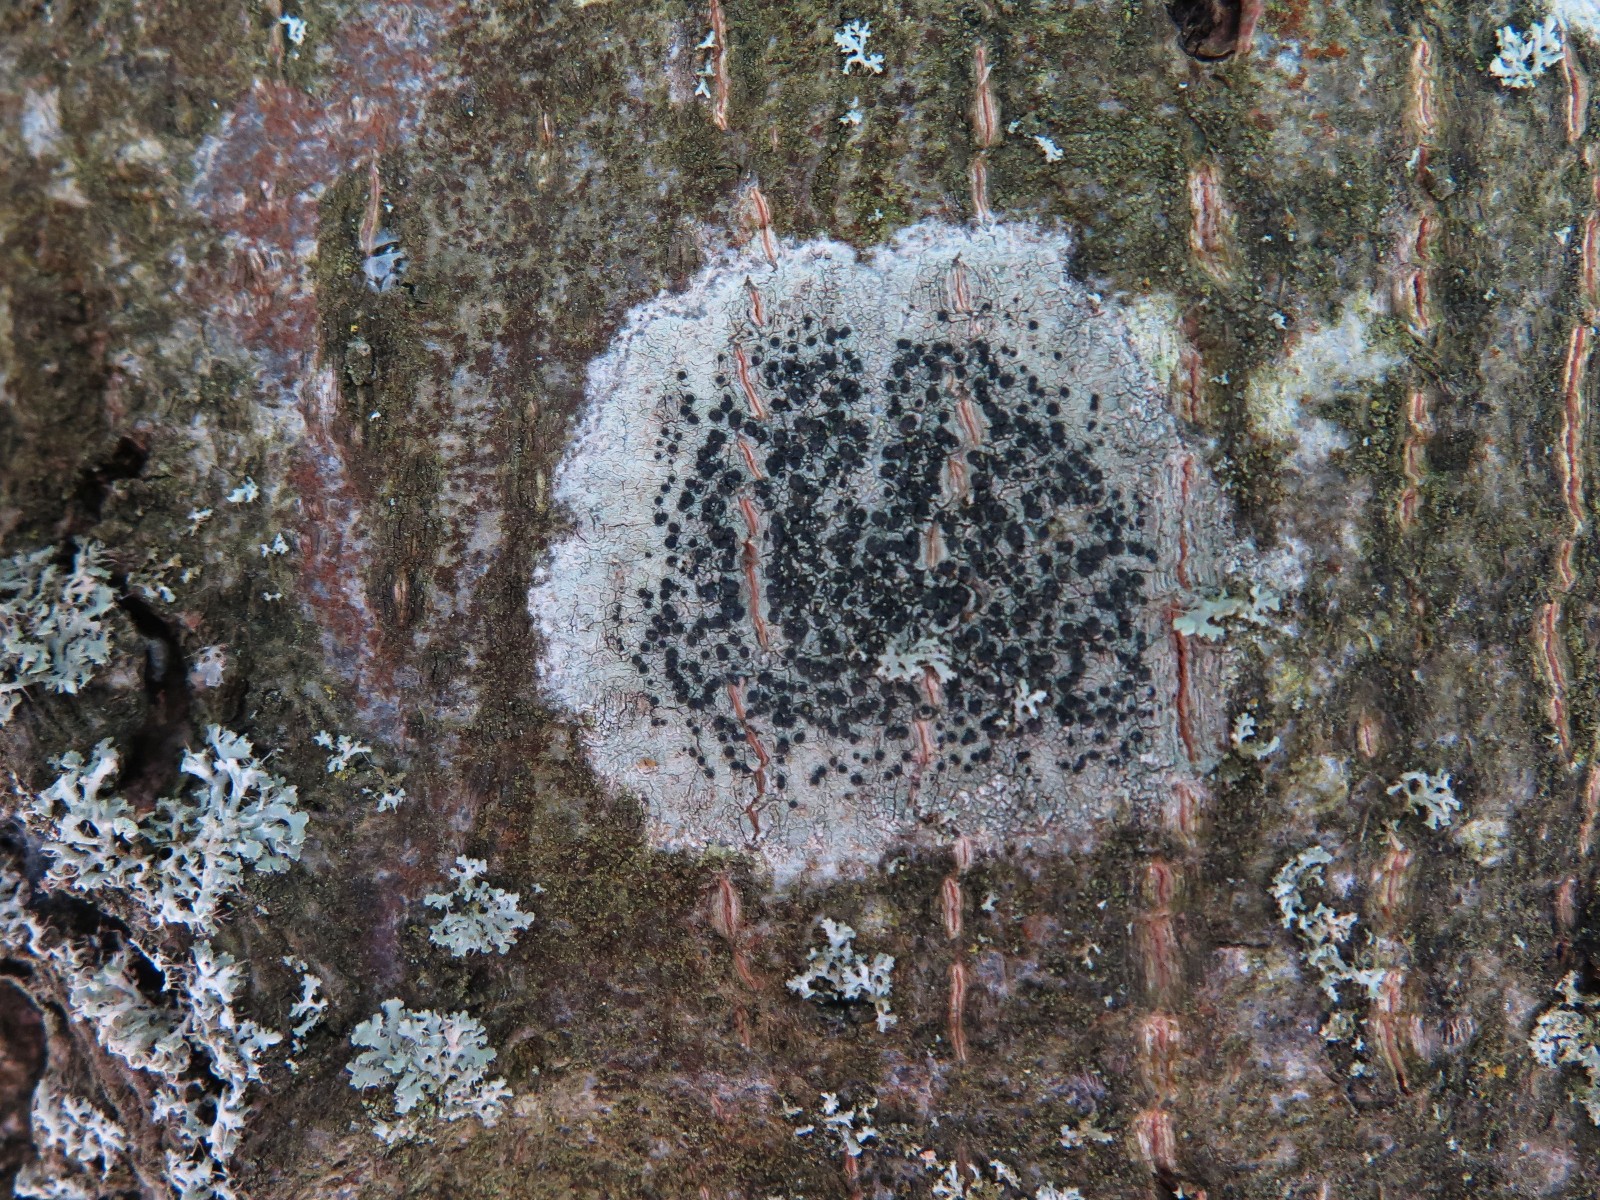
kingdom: Fungi
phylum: Ascomycota
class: Lecanoromycetes
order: Lecanorales
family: Lecanoraceae
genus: Lecidella
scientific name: Lecidella elaeochroma
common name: grågrøn skivelav
